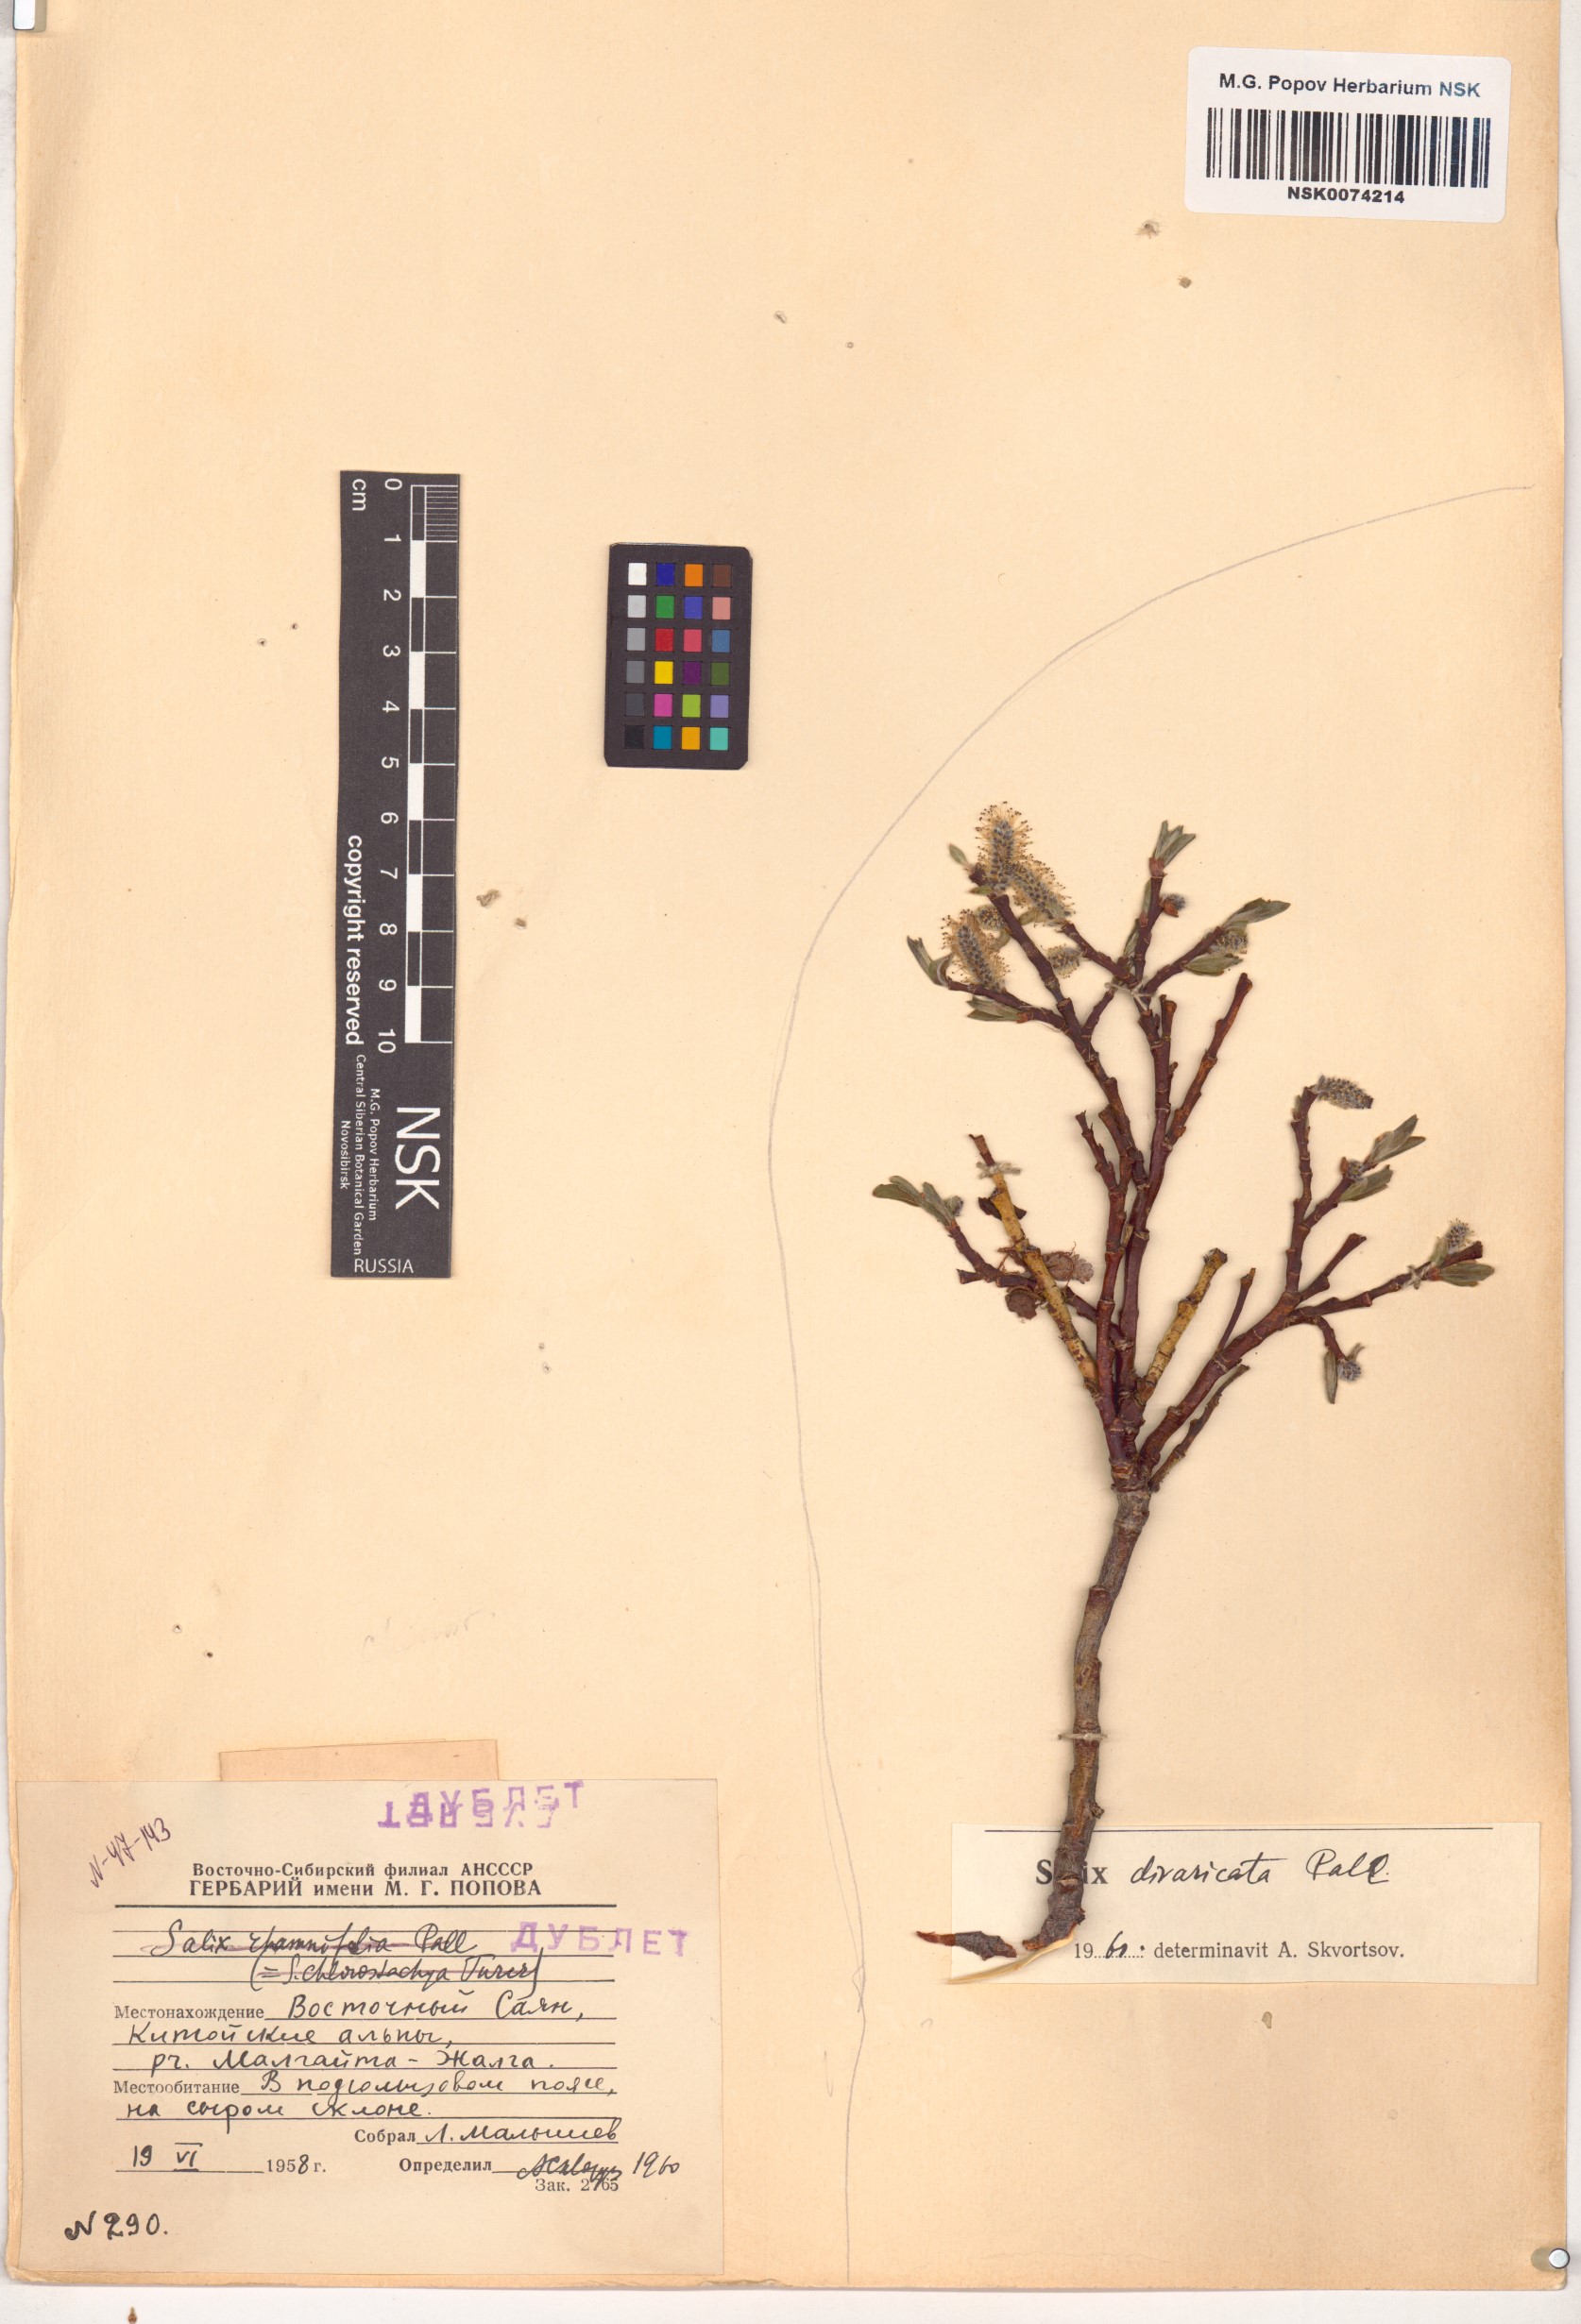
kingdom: Plantae
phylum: Tracheophyta
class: Magnoliopsida
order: Malpighiales
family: Salicaceae
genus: Salix
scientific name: Salix divaricata
